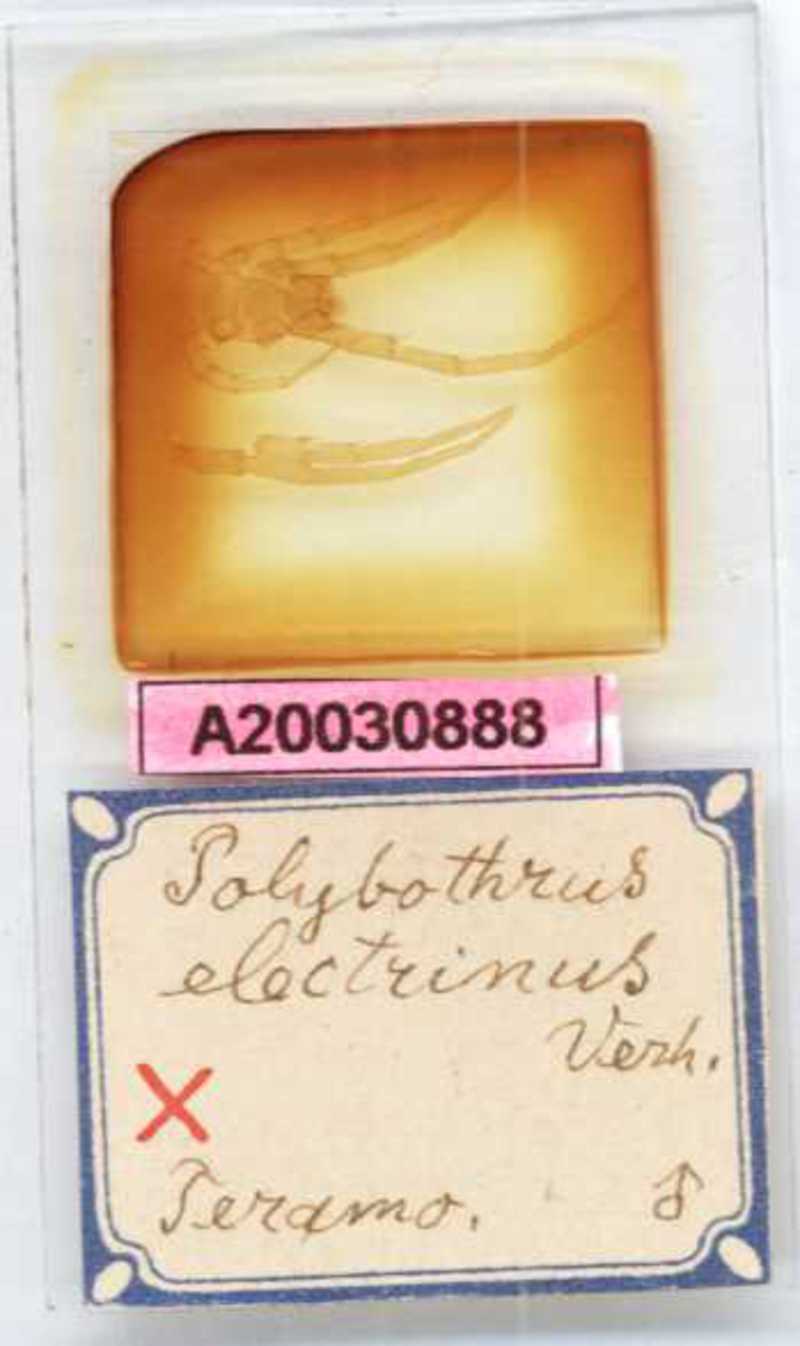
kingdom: Animalia
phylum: Arthropoda
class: Chilopoda
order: Lithobiomorpha
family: Lithobiidae
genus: Eupolybothrus
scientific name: Eupolybothrus imperialis
